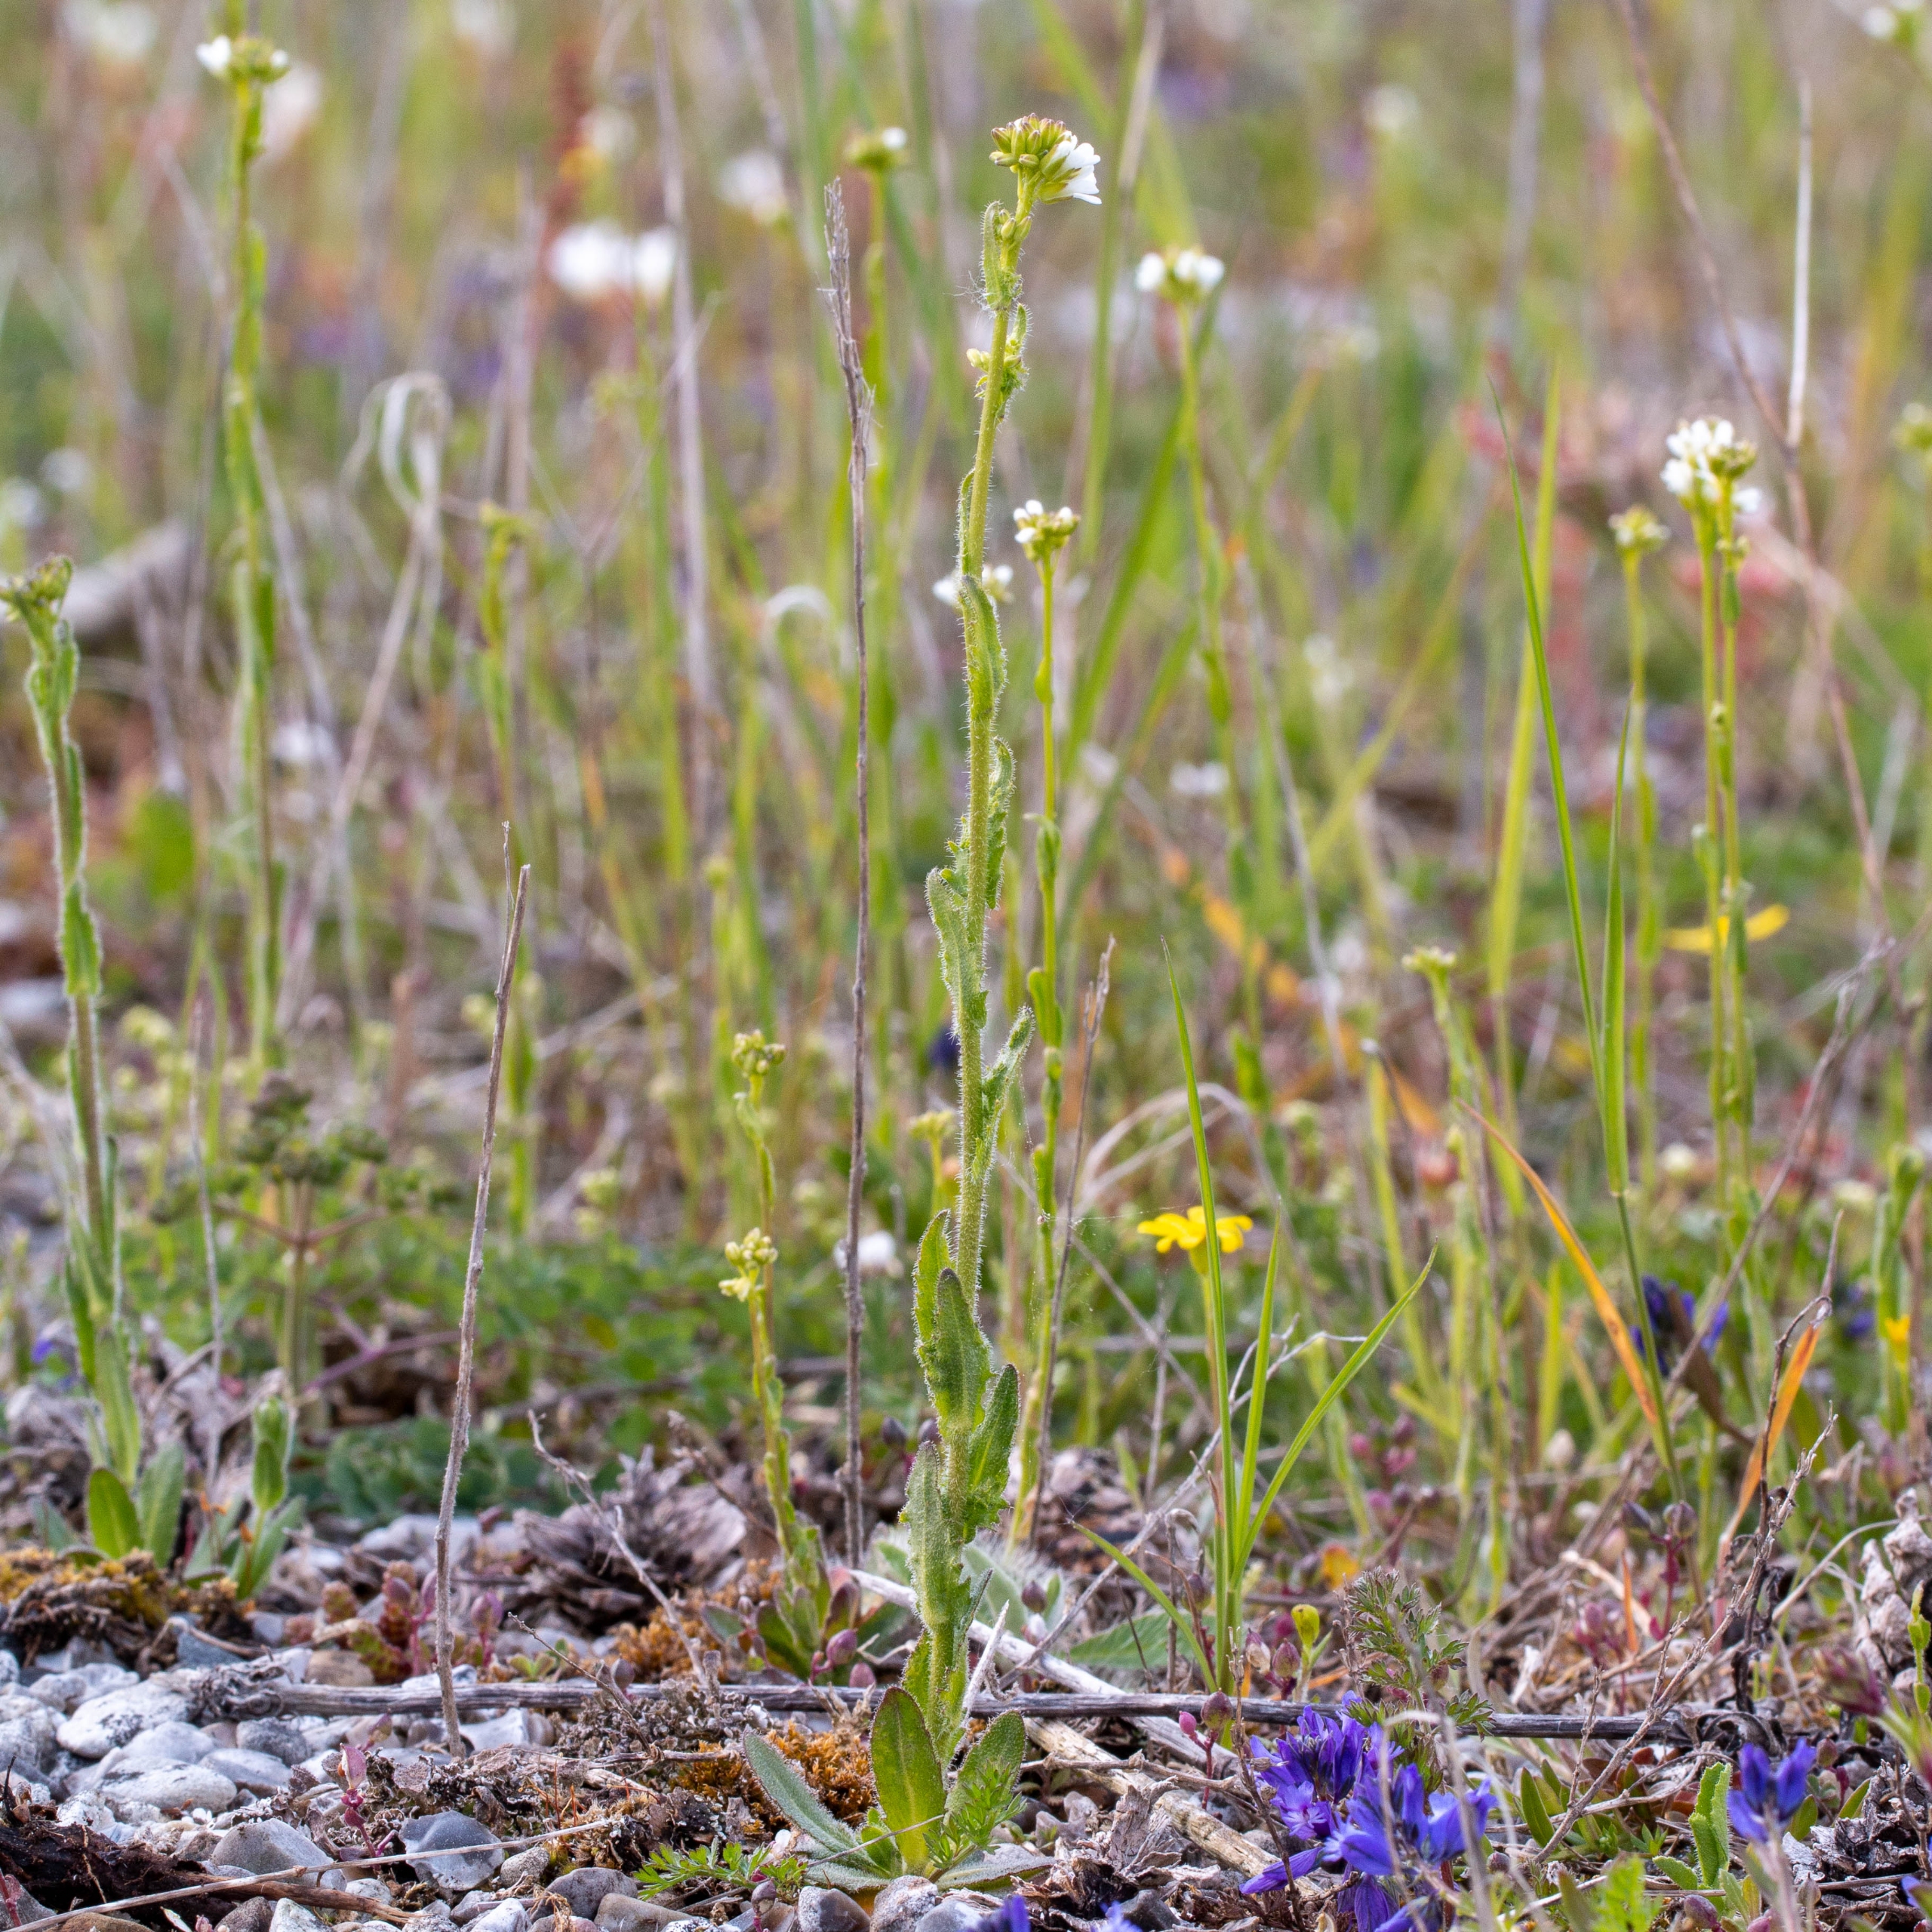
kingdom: Plantae
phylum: Tracheophyta
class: Magnoliopsida
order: Brassicales
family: Brassicaceae
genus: Arabis
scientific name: Arabis hirsuta
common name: Stivhåret kalkkarse
